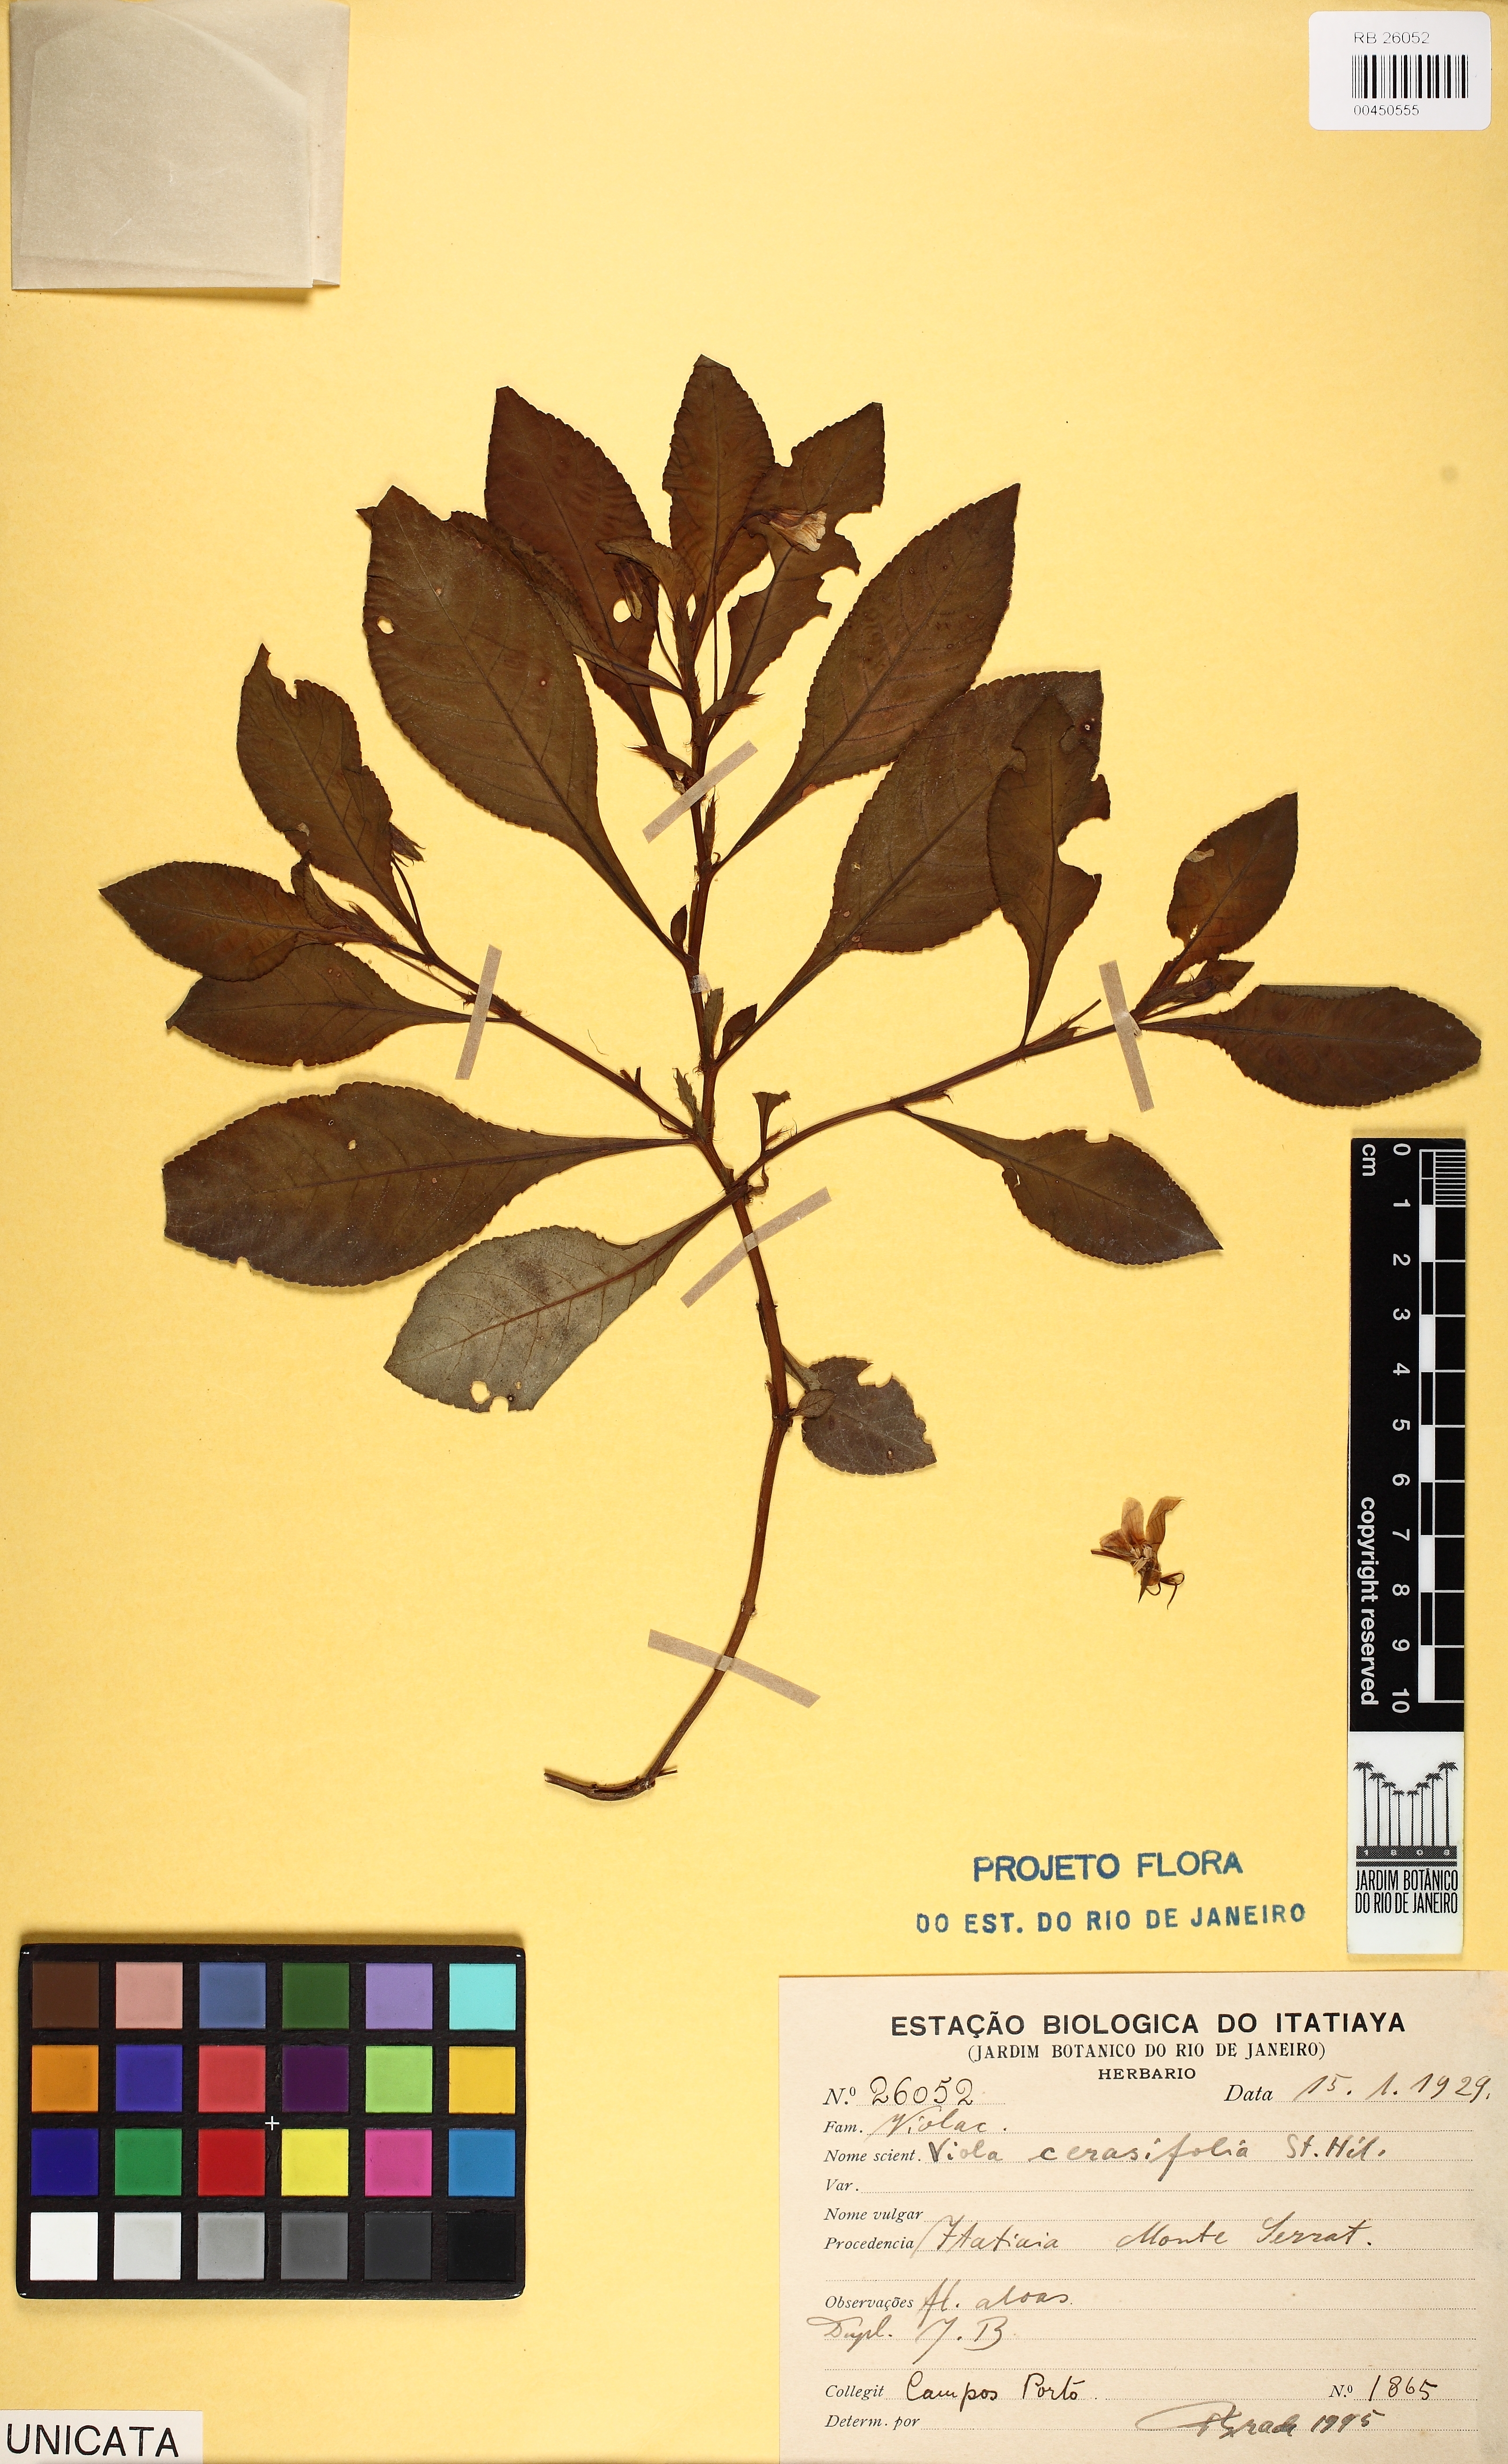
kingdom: Plantae
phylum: Tracheophyta
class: Magnoliopsida
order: Malpighiales
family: Violaceae
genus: Viola
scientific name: Viola cerasifolia
